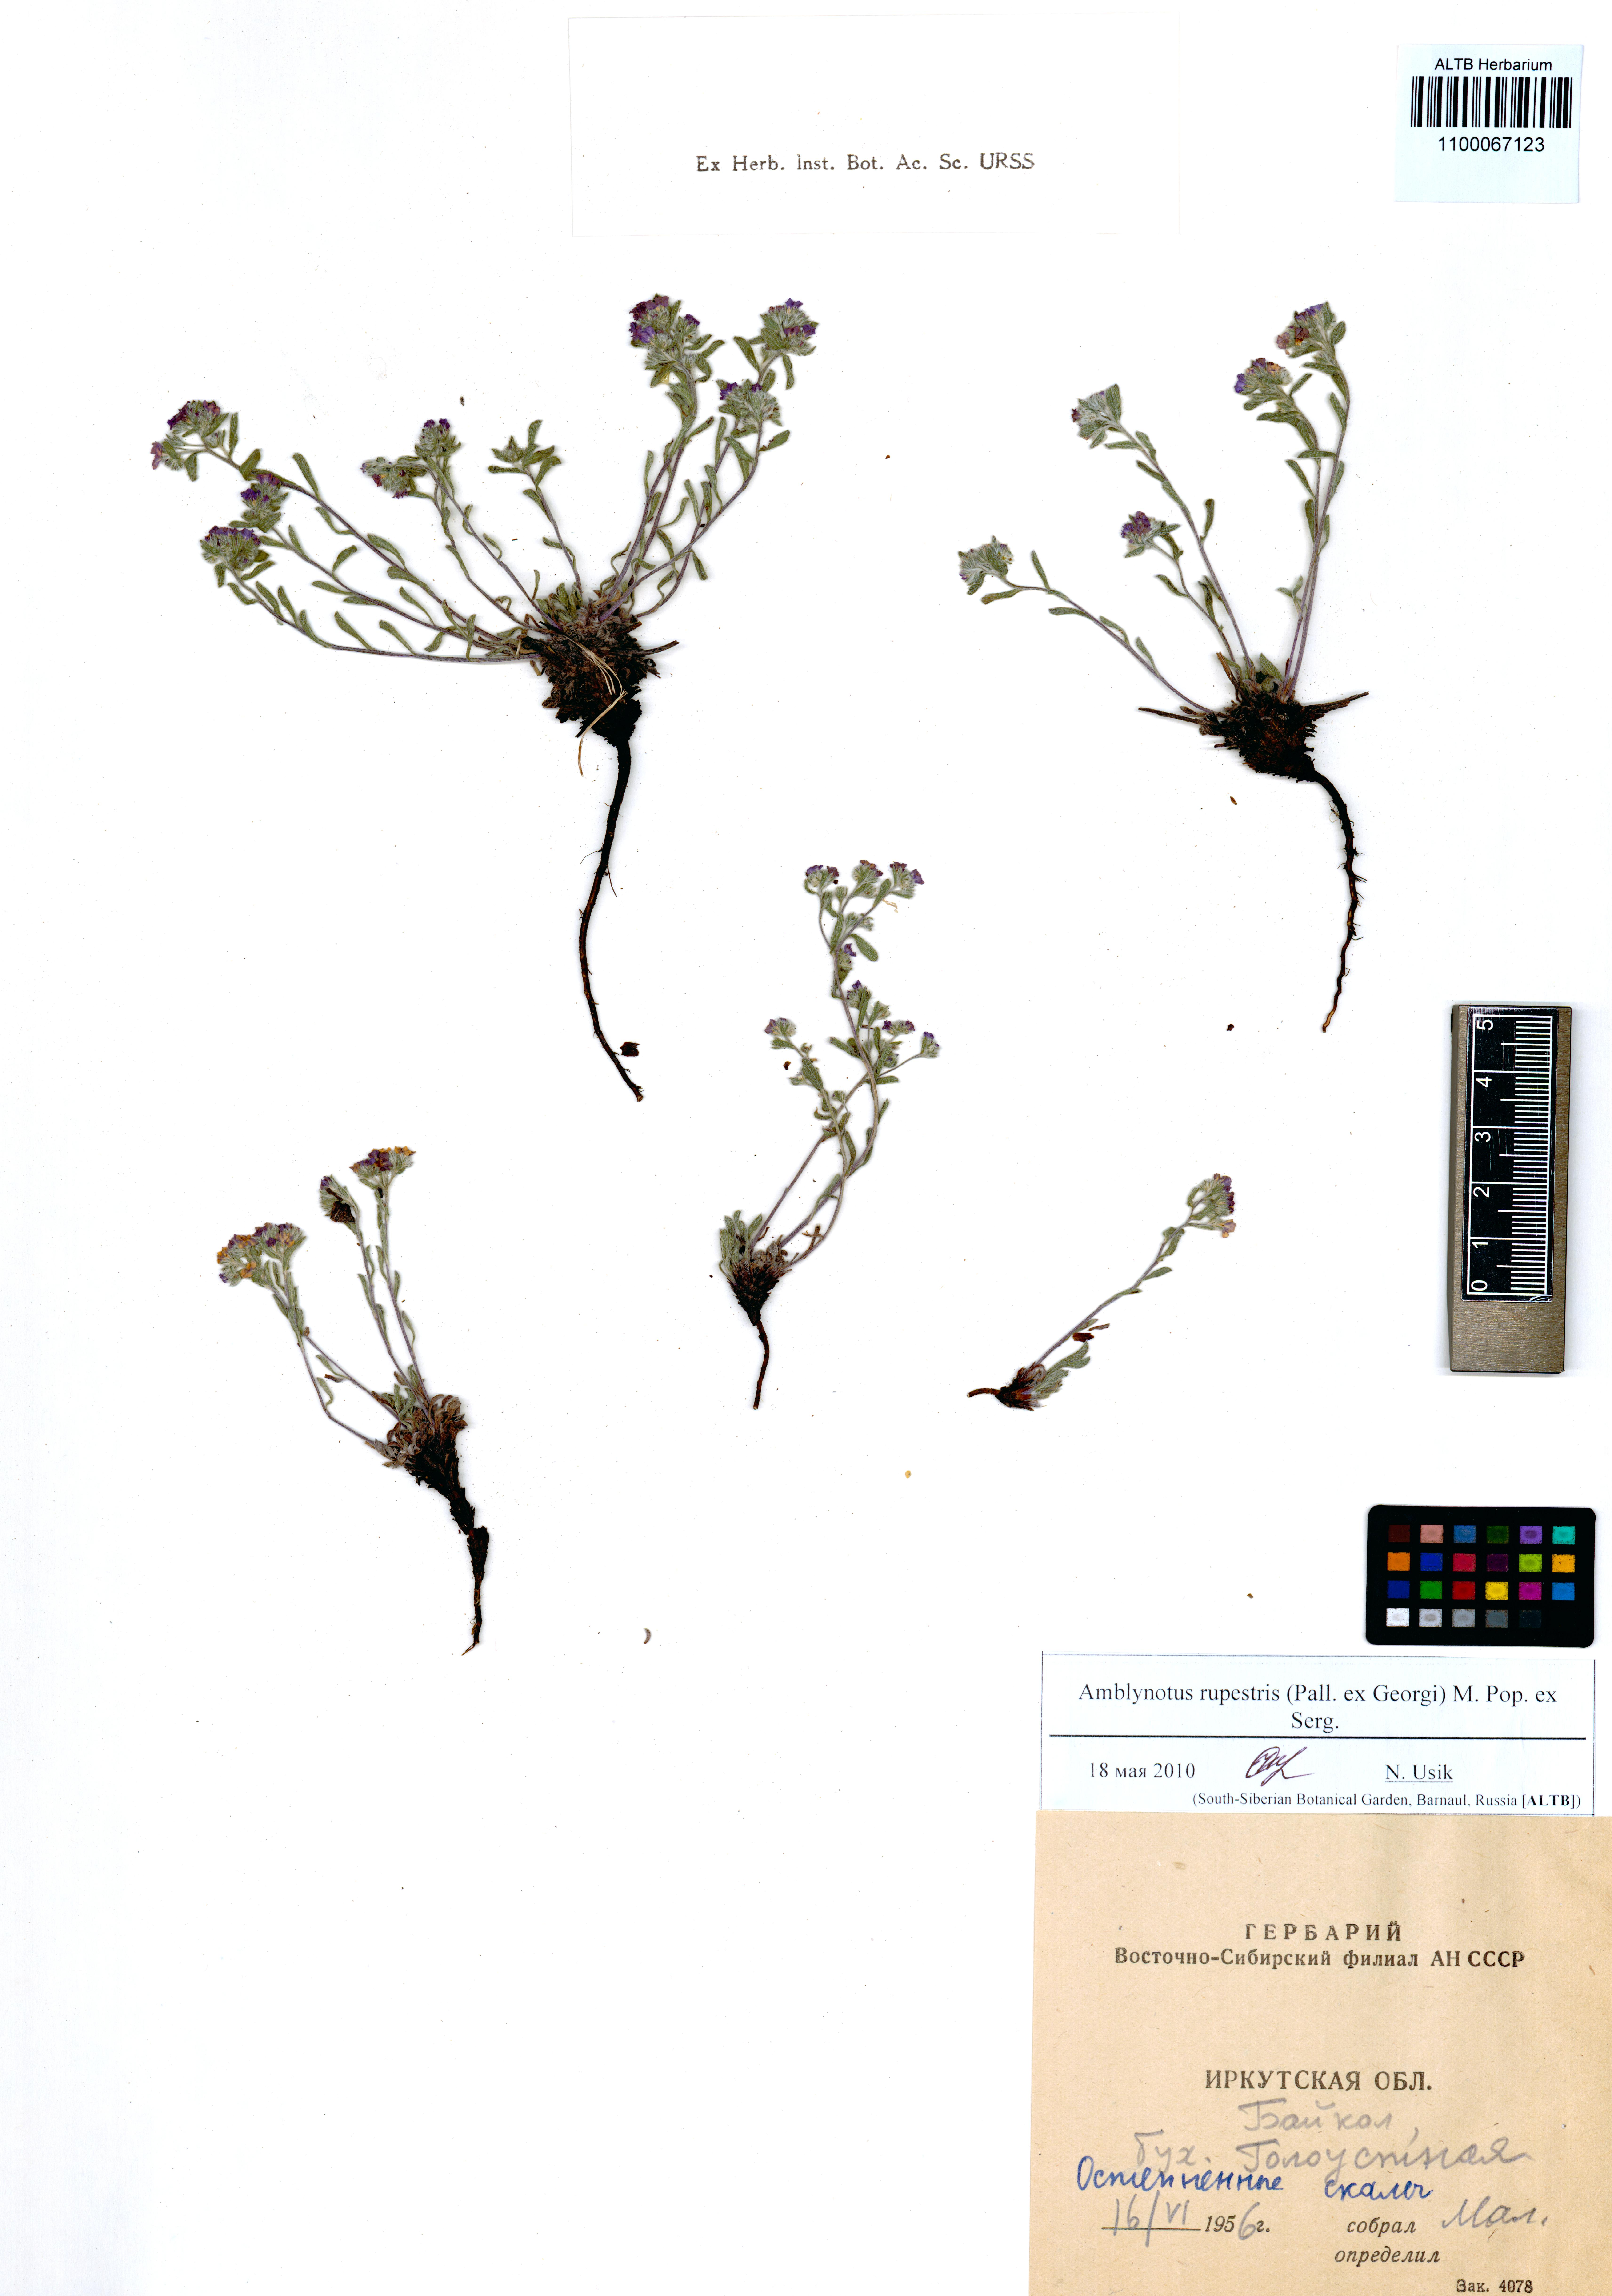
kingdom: Plantae
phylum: Tracheophyta
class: Magnoliopsida
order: Boraginales
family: Boraginaceae
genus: Eritrichium
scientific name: Eritrichium rupestre
